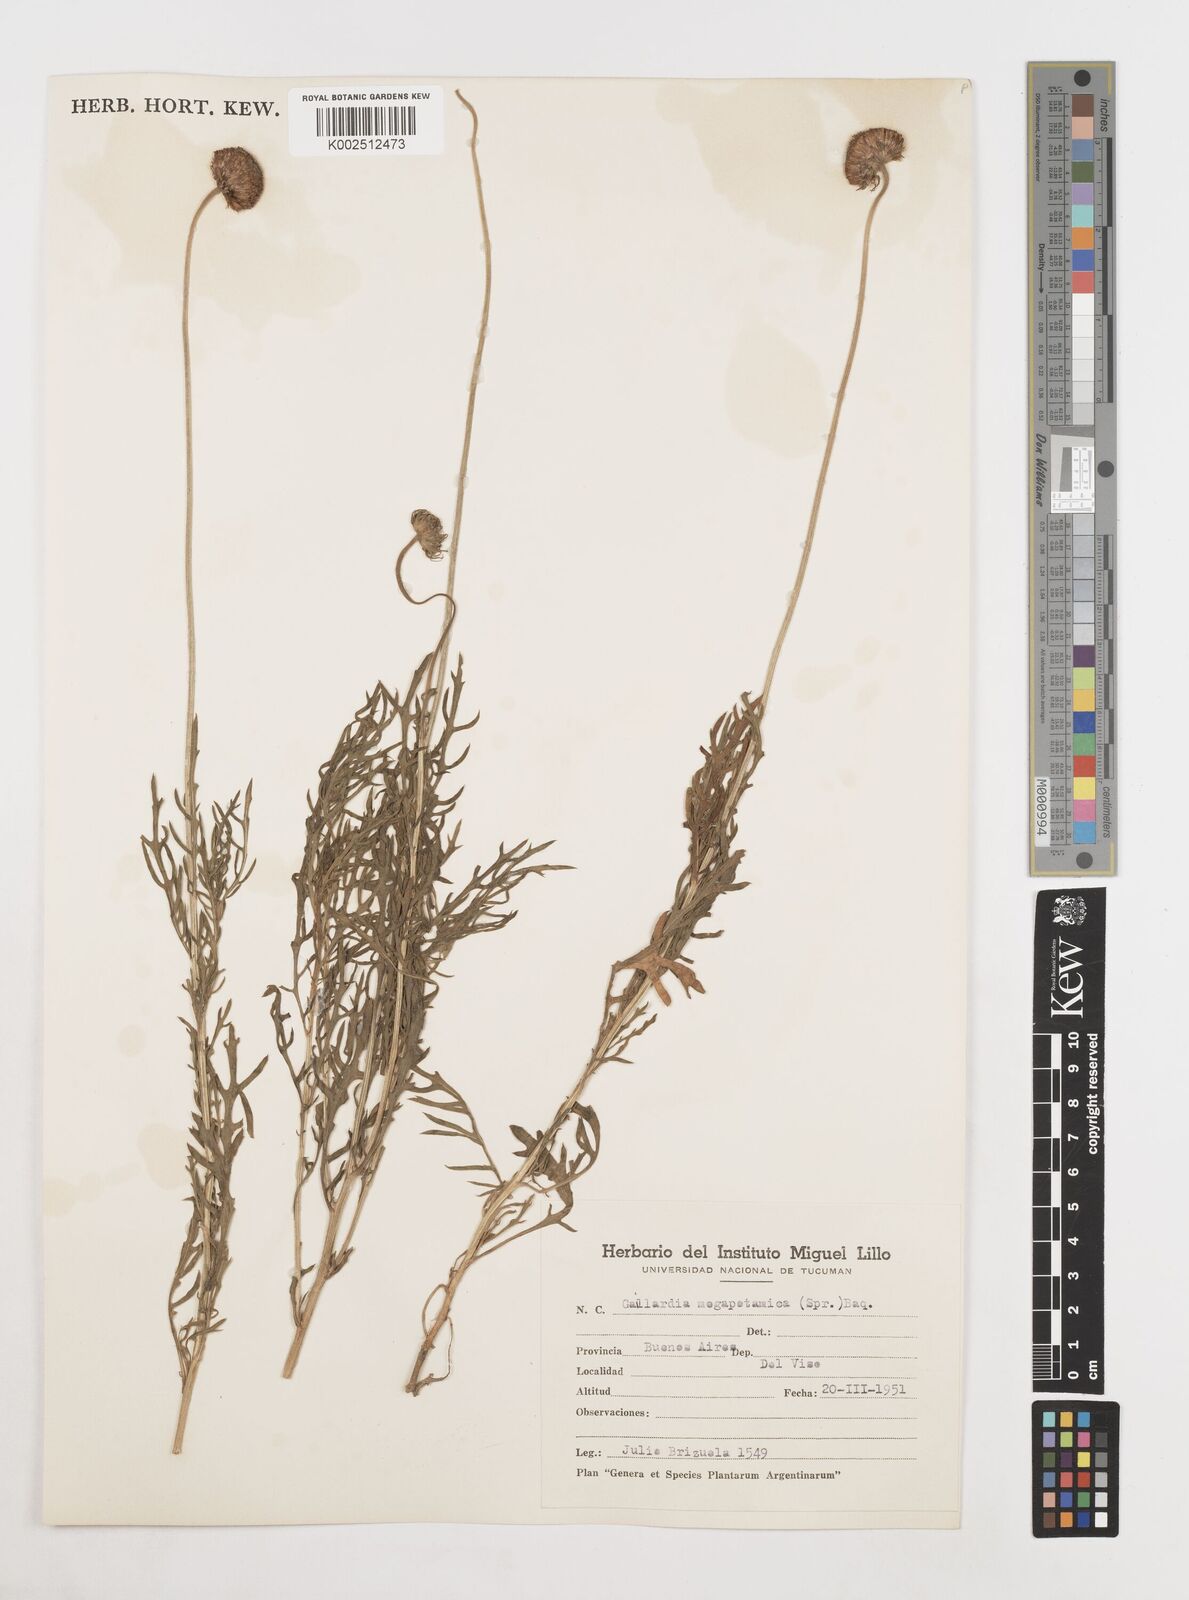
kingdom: Plantae
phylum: Tracheophyta
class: Magnoliopsida
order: Asterales
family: Asteraceae
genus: Gaillardia
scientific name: Gaillardia megapotamica
